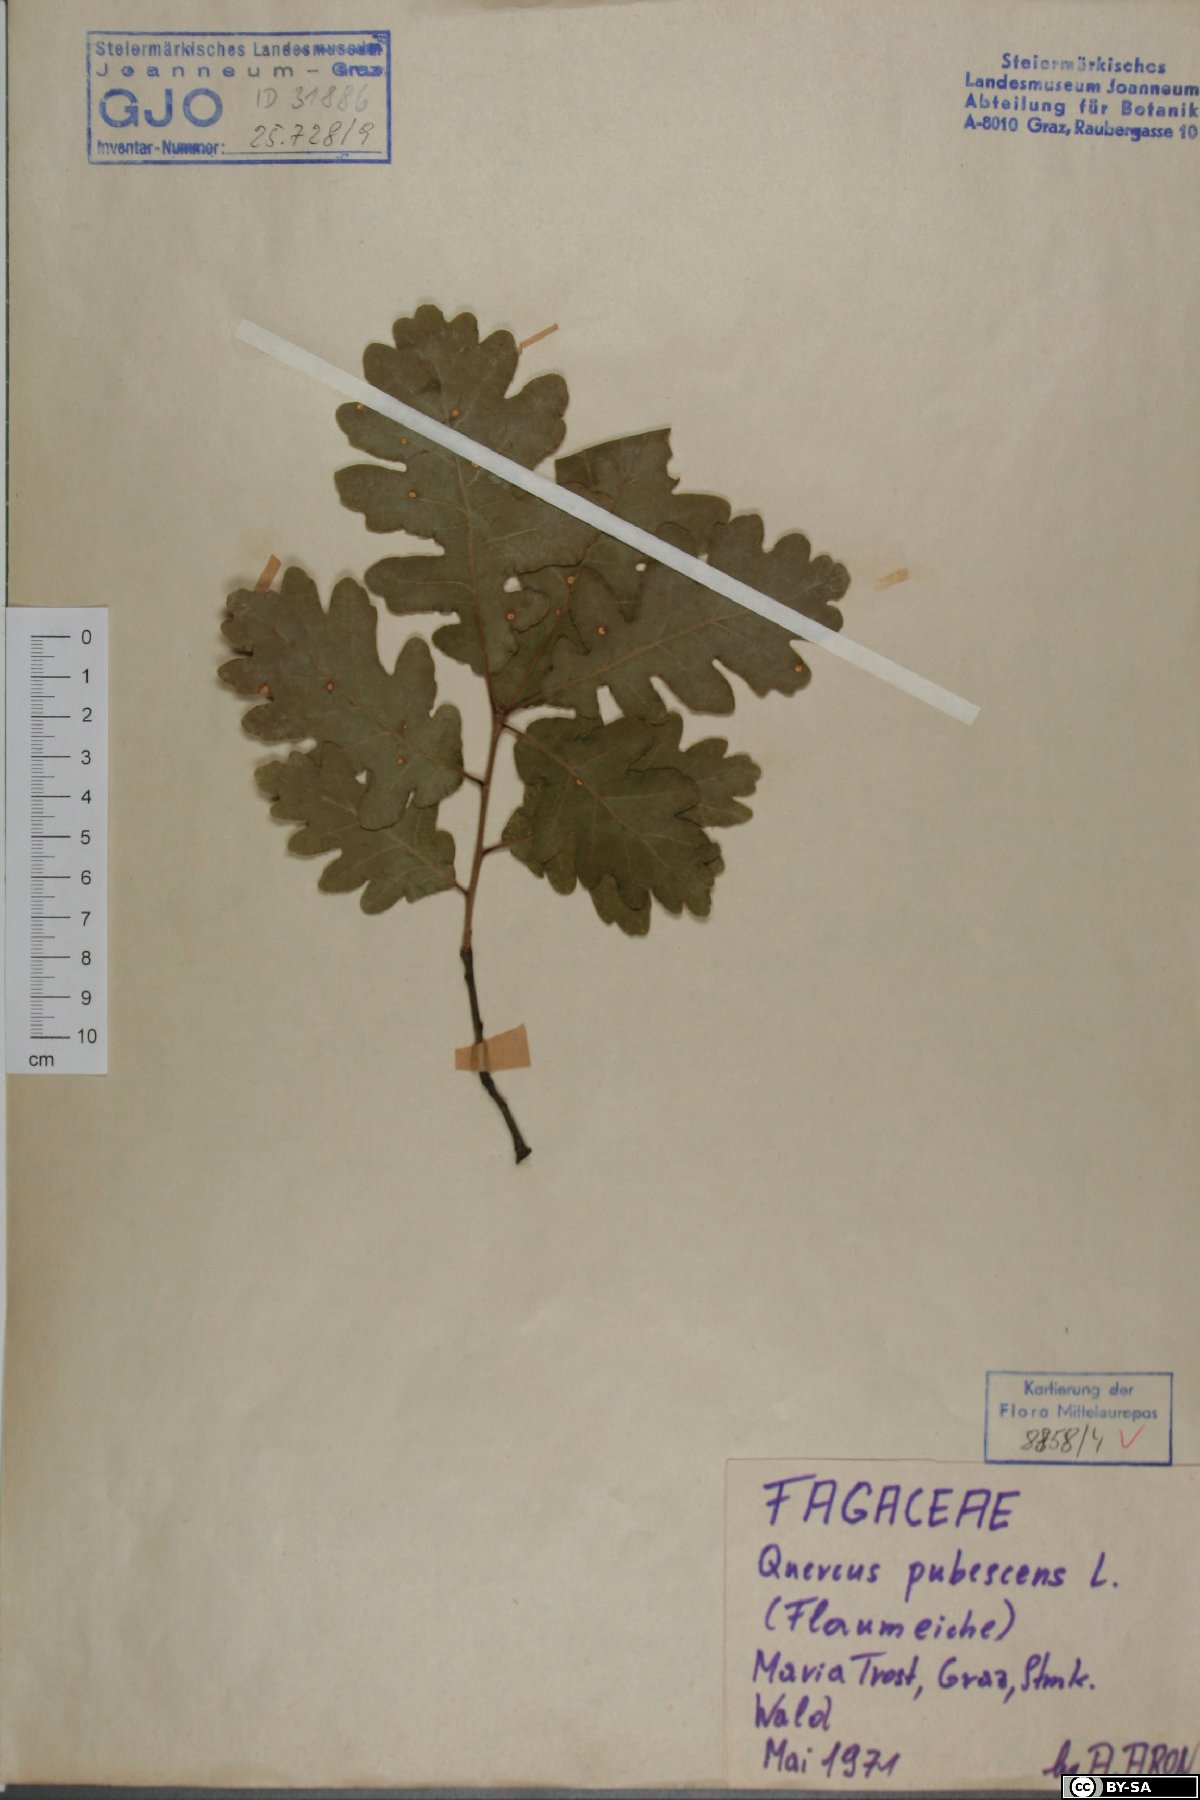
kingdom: Plantae
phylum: Tracheophyta
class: Magnoliopsida
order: Fagales
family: Fagaceae
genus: Quercus
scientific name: Quercus pubescens
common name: Downy oak
